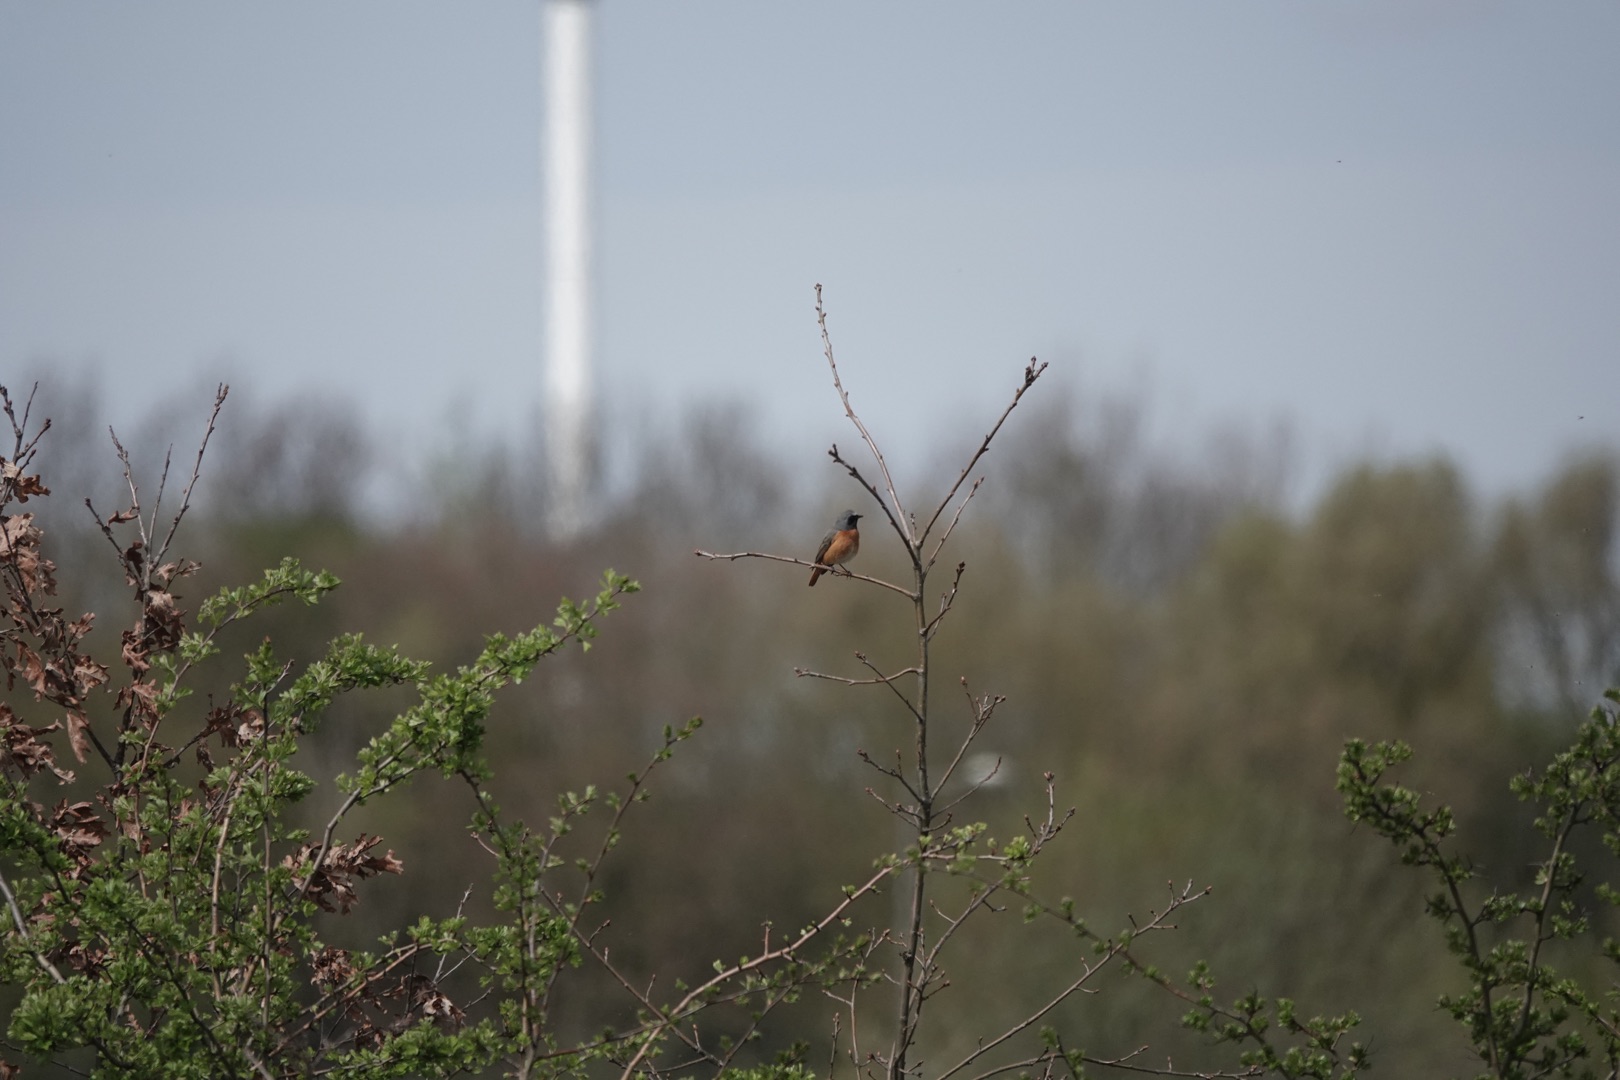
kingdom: Animalia
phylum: Chordata
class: Aves
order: Passeriformes
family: Muscicapidae
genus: Phoenicurus
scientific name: Phoenicurus phoenicurus
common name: Rødstjert
